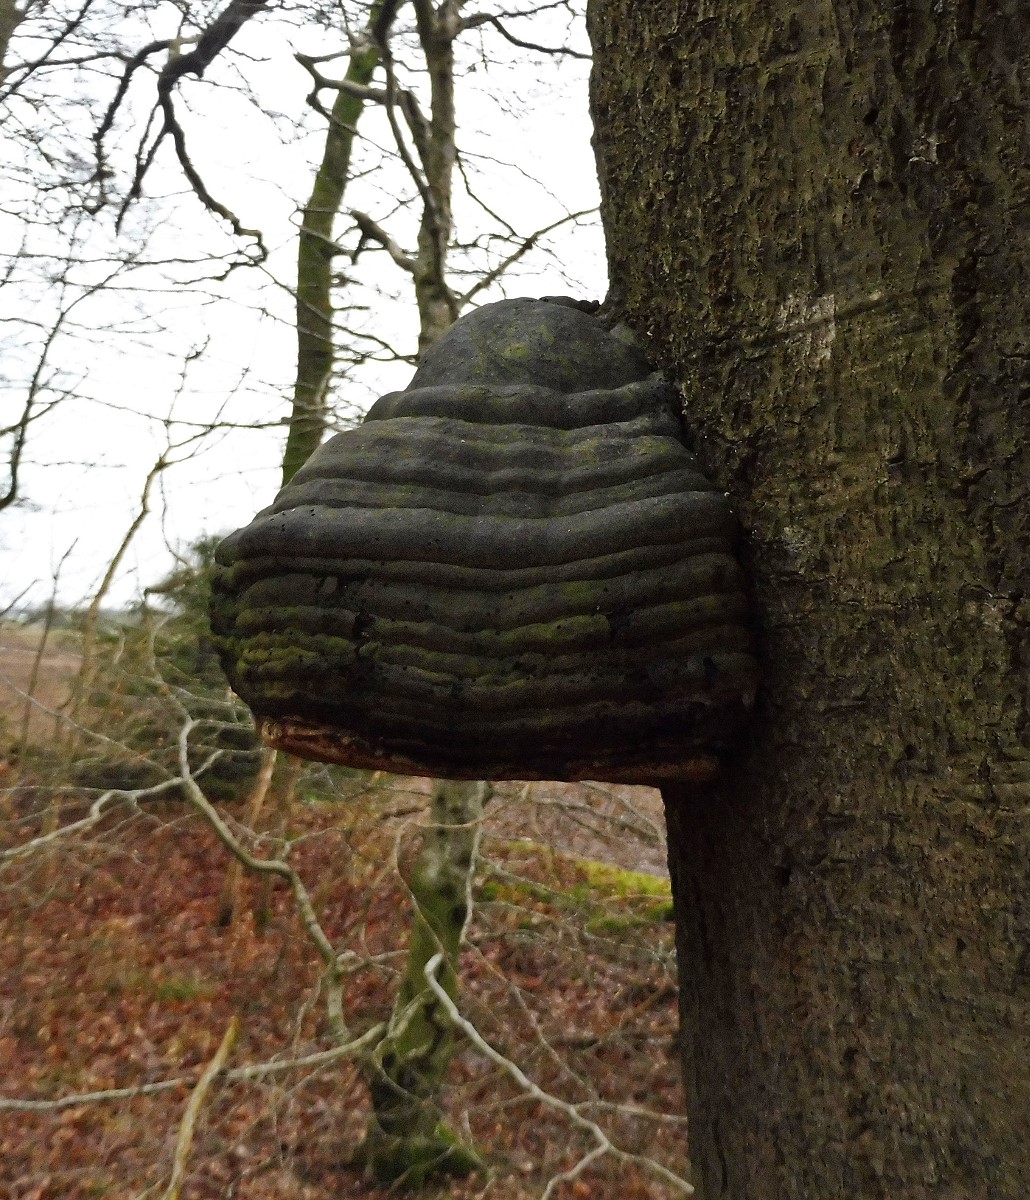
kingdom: Fungi
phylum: Basidiomycota
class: Agaricomycetes
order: Polyporales
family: Polyporaceae
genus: Fomes
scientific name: Fomes fomentarius
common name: tøndersvamp
